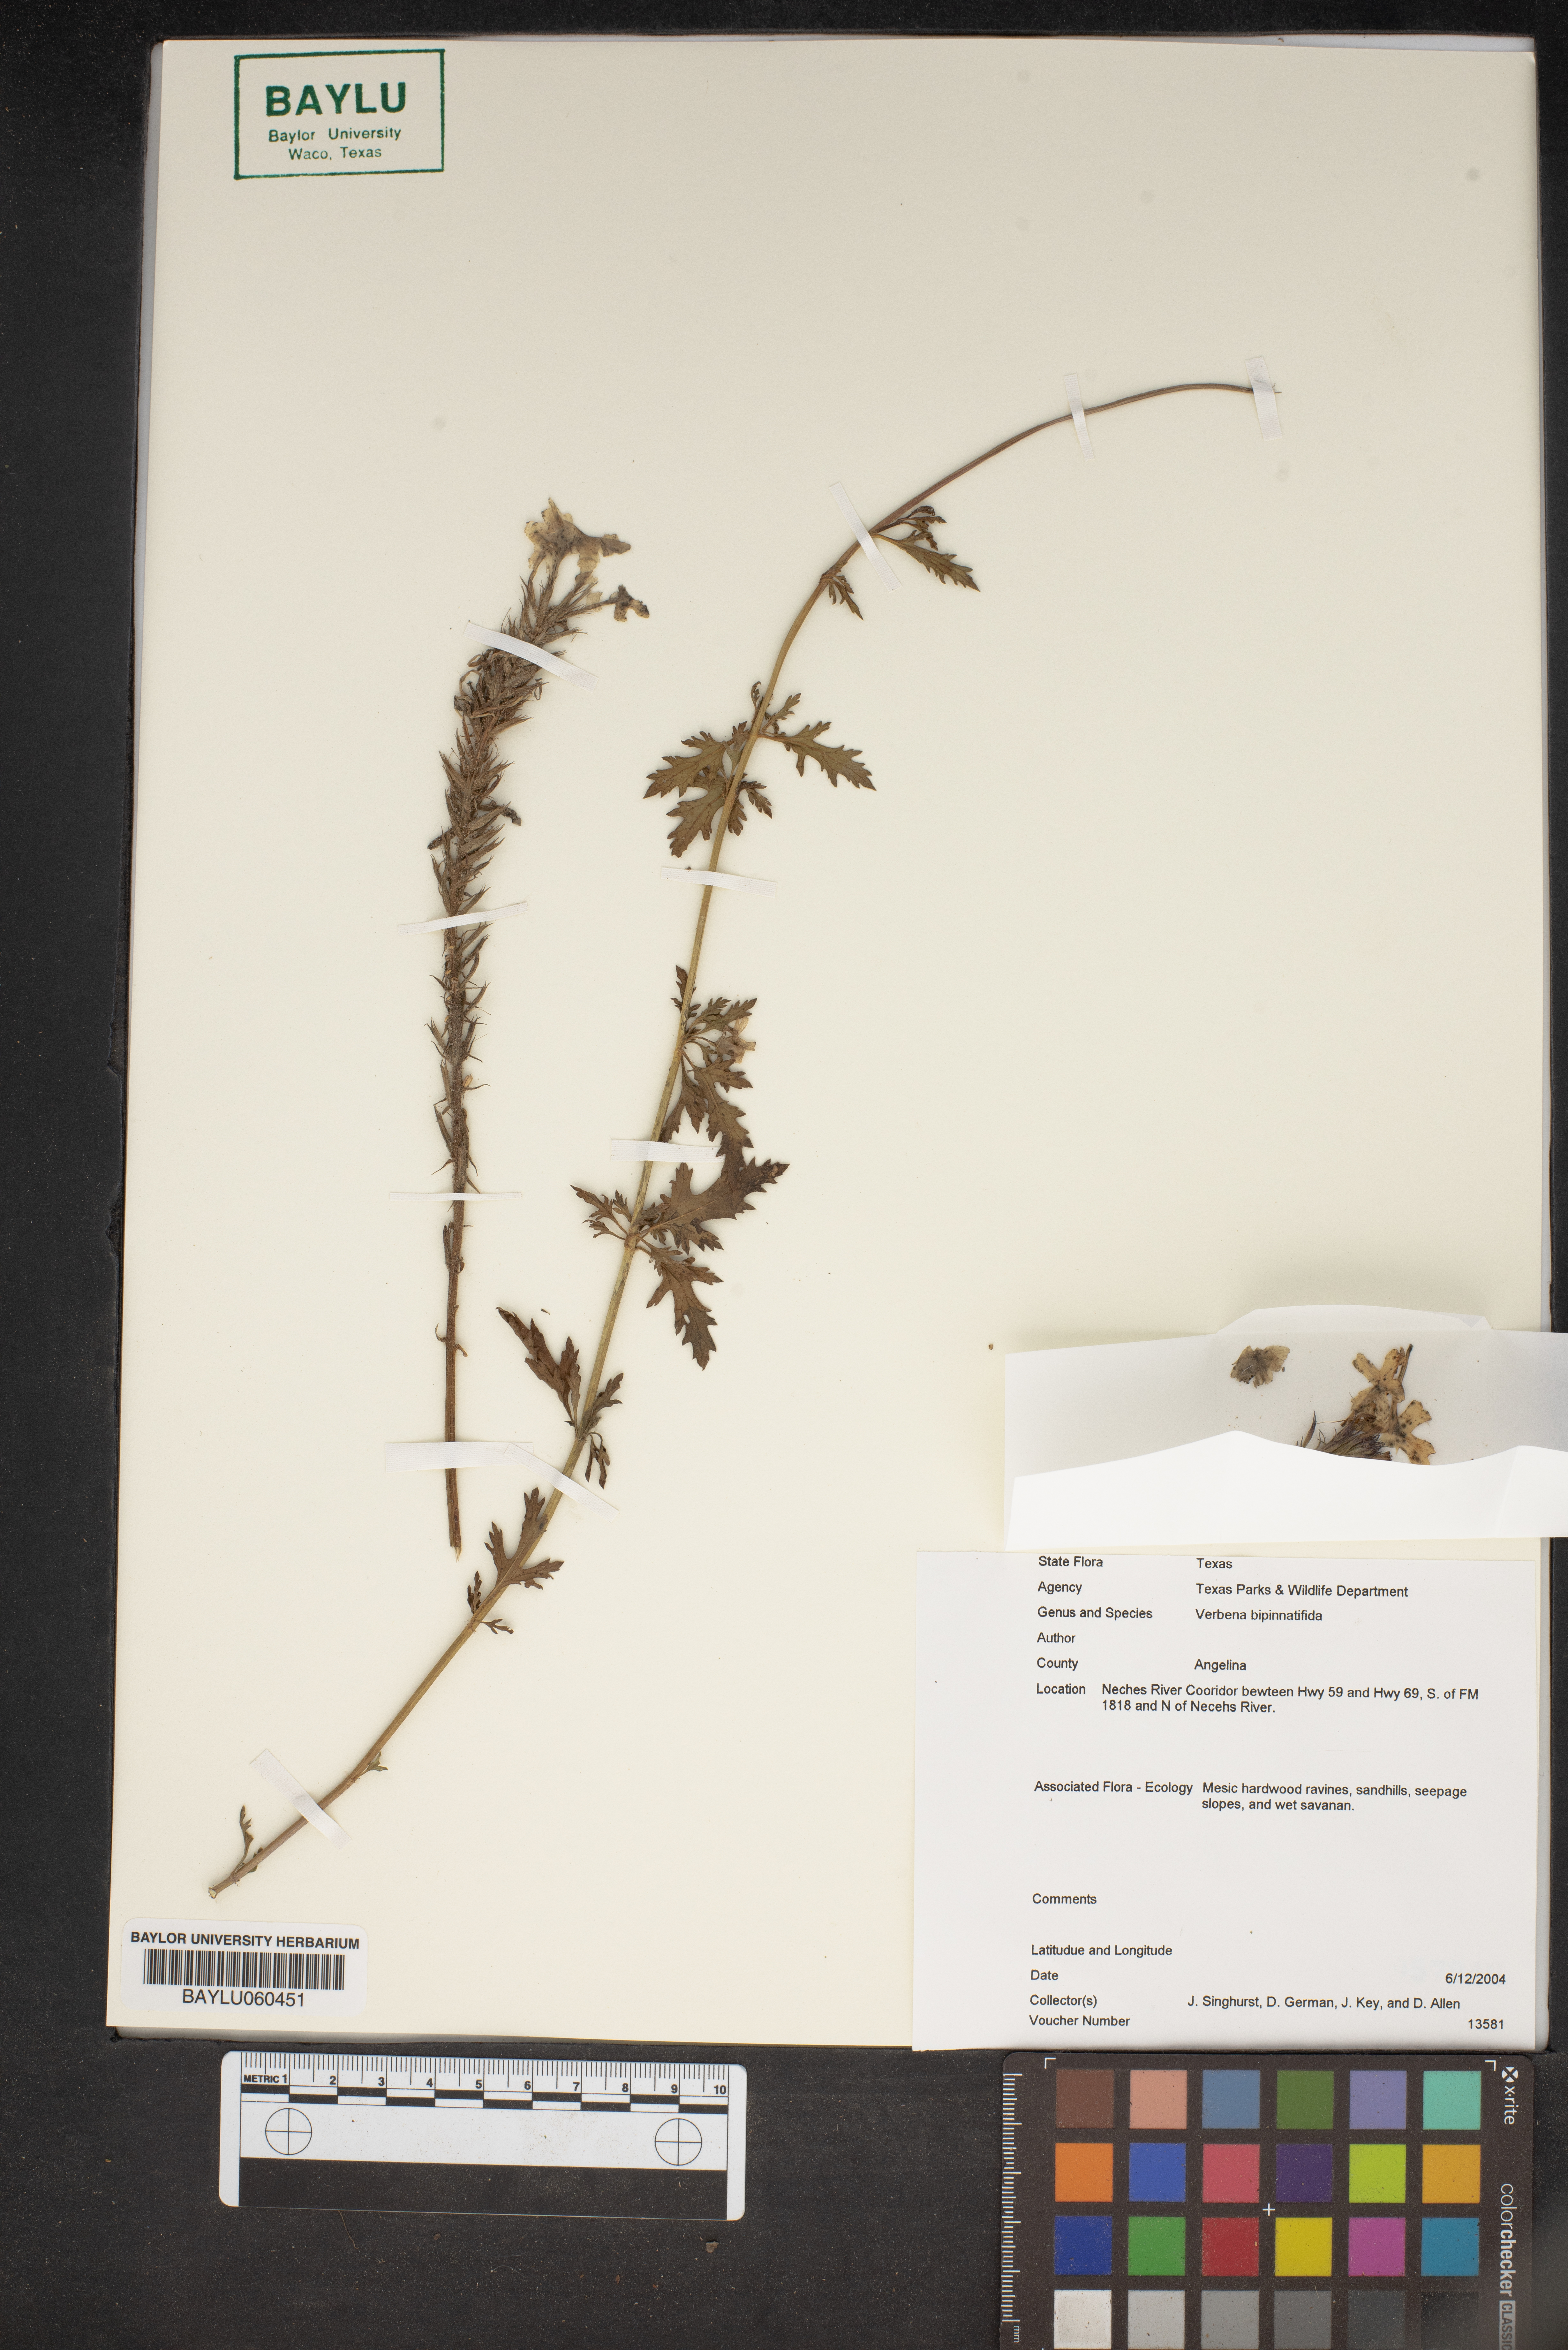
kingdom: Plantae
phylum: Tracheophyta
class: Magnoliopsida
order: Lamiales
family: Verbenaceae
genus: Verbena
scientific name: Verbena bipinnatifida
